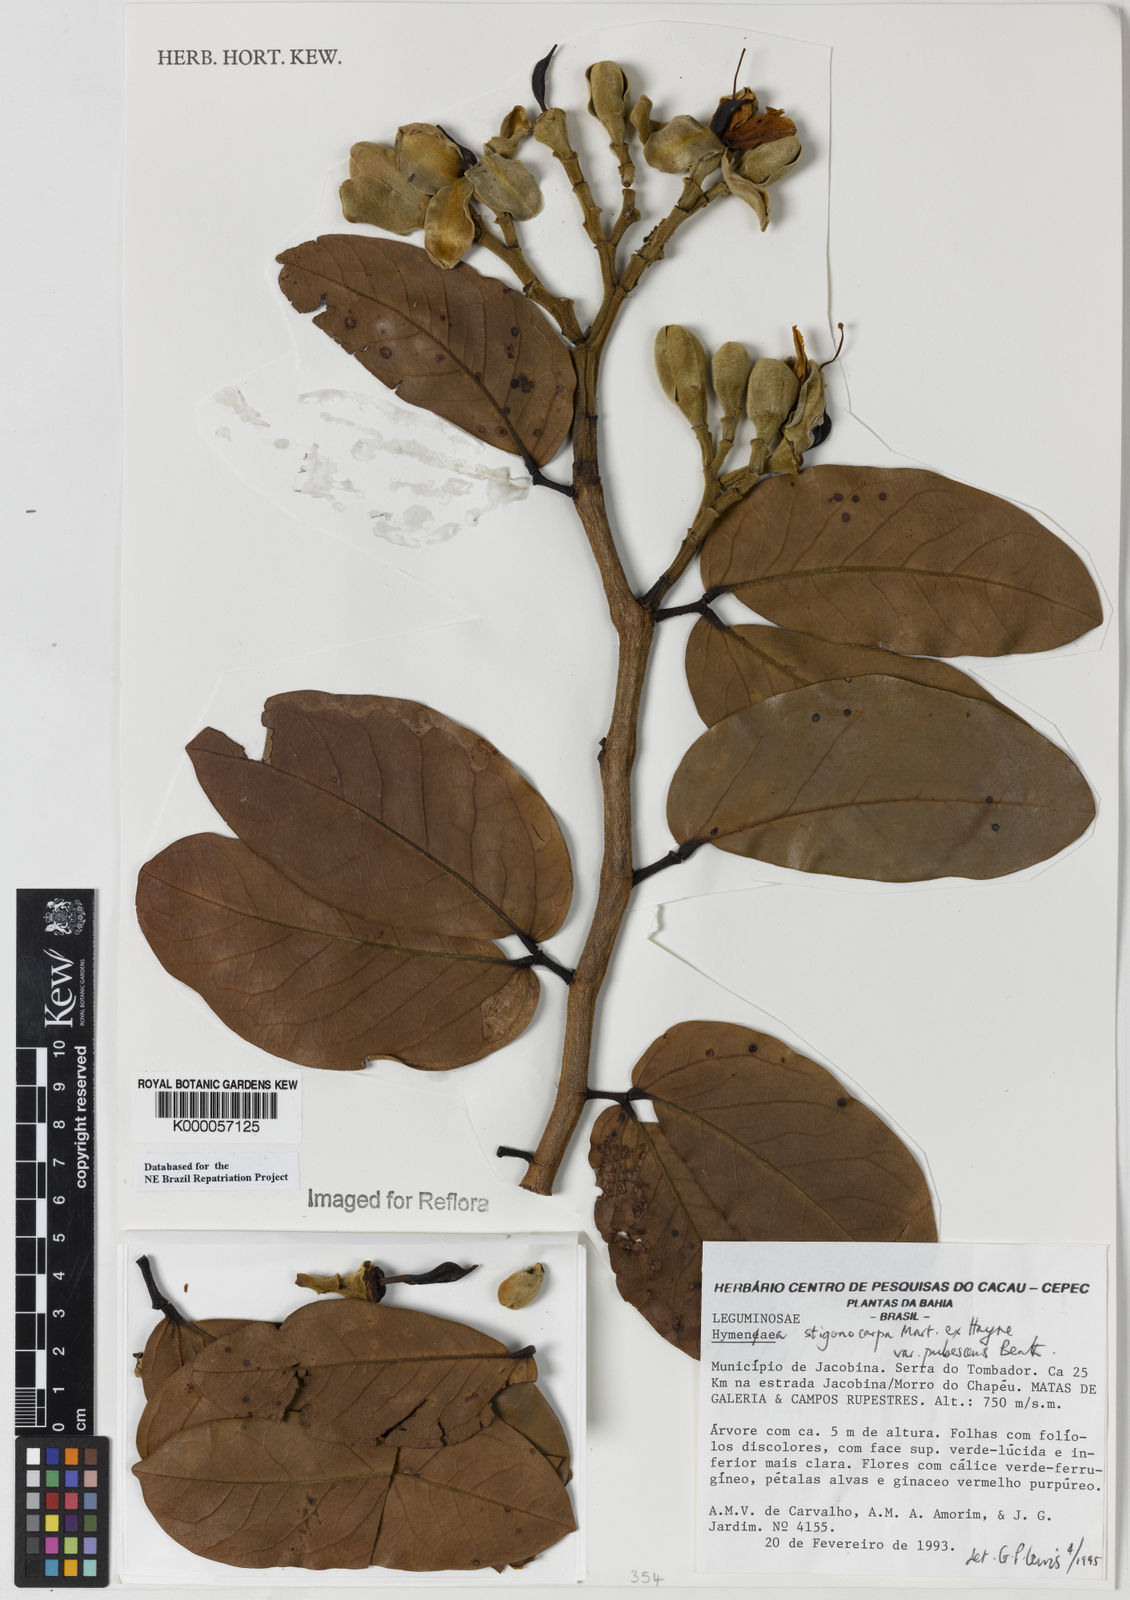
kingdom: Plantae
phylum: Tracheophyta
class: Magnoliopsida
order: Fabales
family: Fabaceae
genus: Hymenaea
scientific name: Hymenaea stigonocarpa
